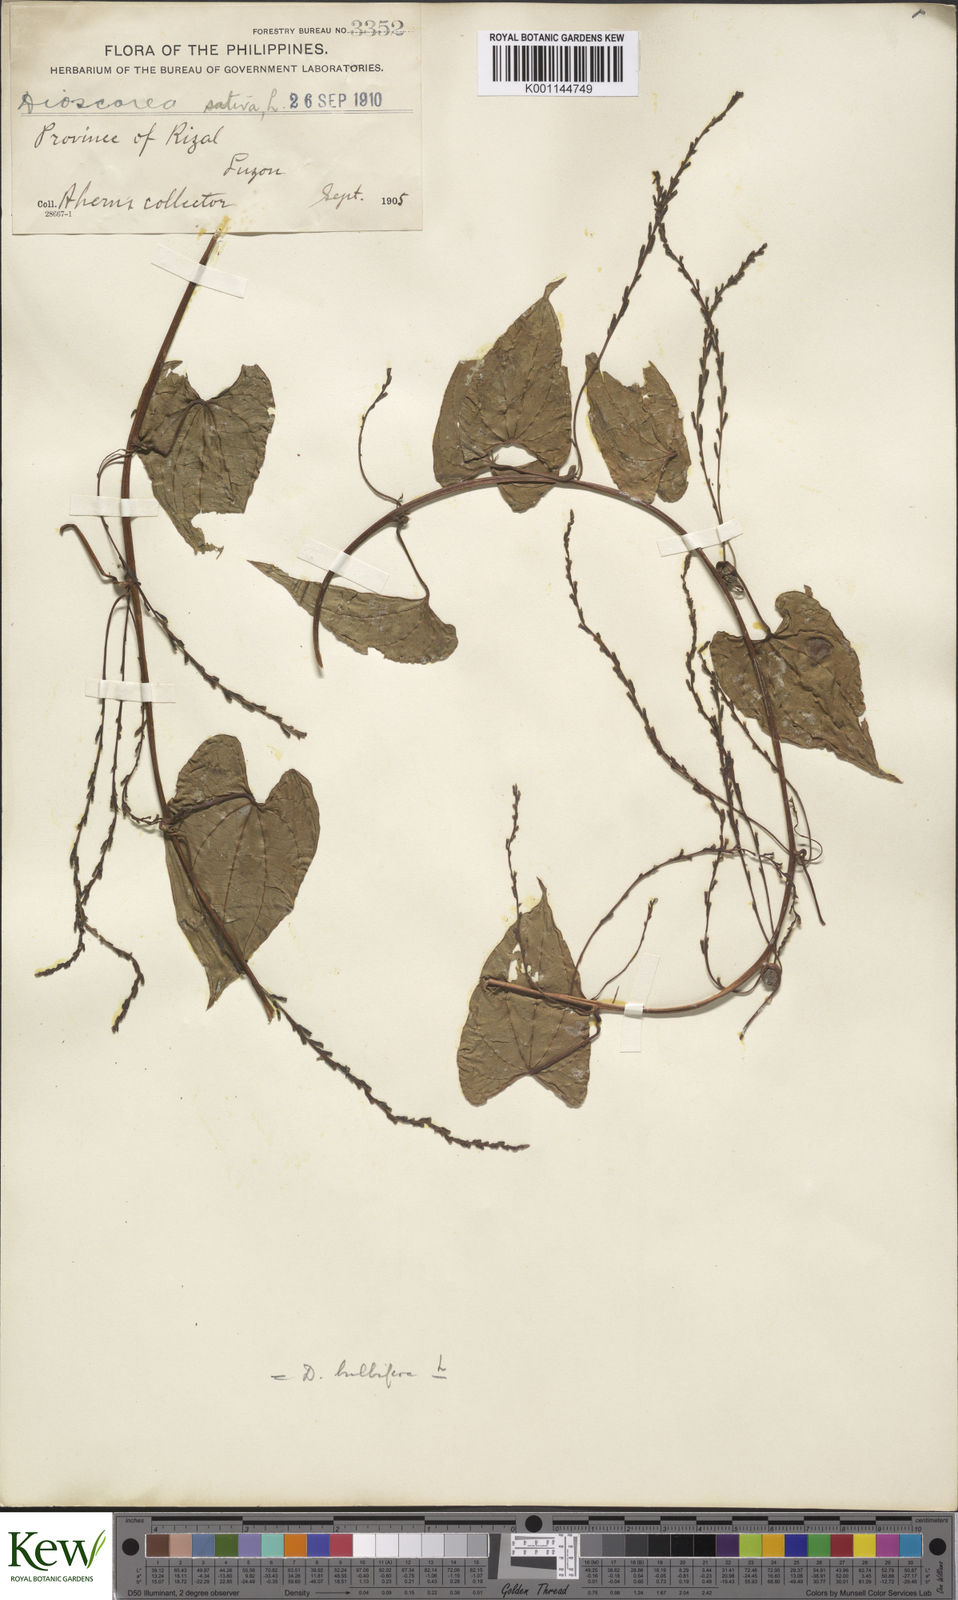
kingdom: Plantae
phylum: Tracheophyta
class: Liliopsida
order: Dioscoreales
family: Dioscoreaceae
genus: Dioscorea
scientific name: Dioscorea bulbifera
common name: Air yam
